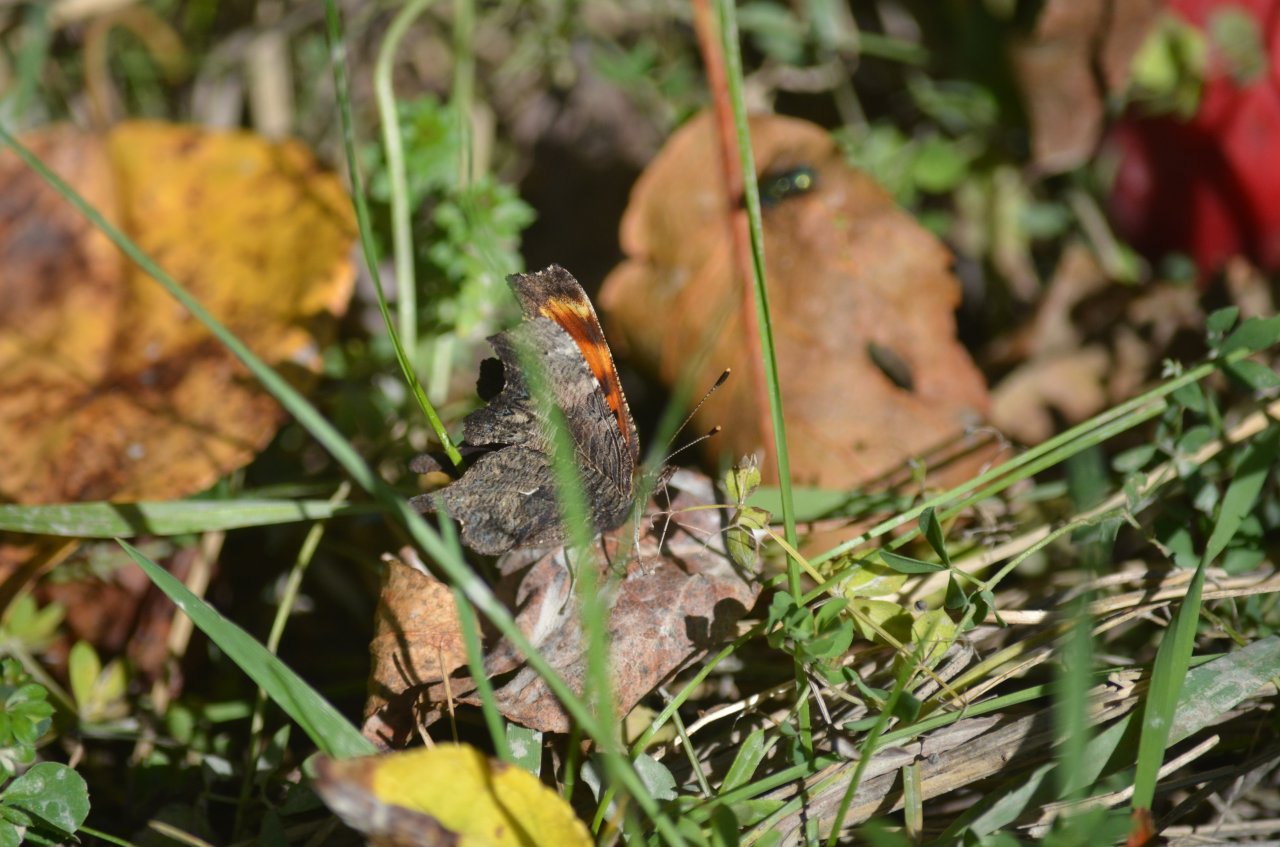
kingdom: Animalia
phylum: Arthropoda
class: Insecta
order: Lepidoptera
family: Nymphalidae
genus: Polygonia
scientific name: Polygonia progne
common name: Gray Comma
